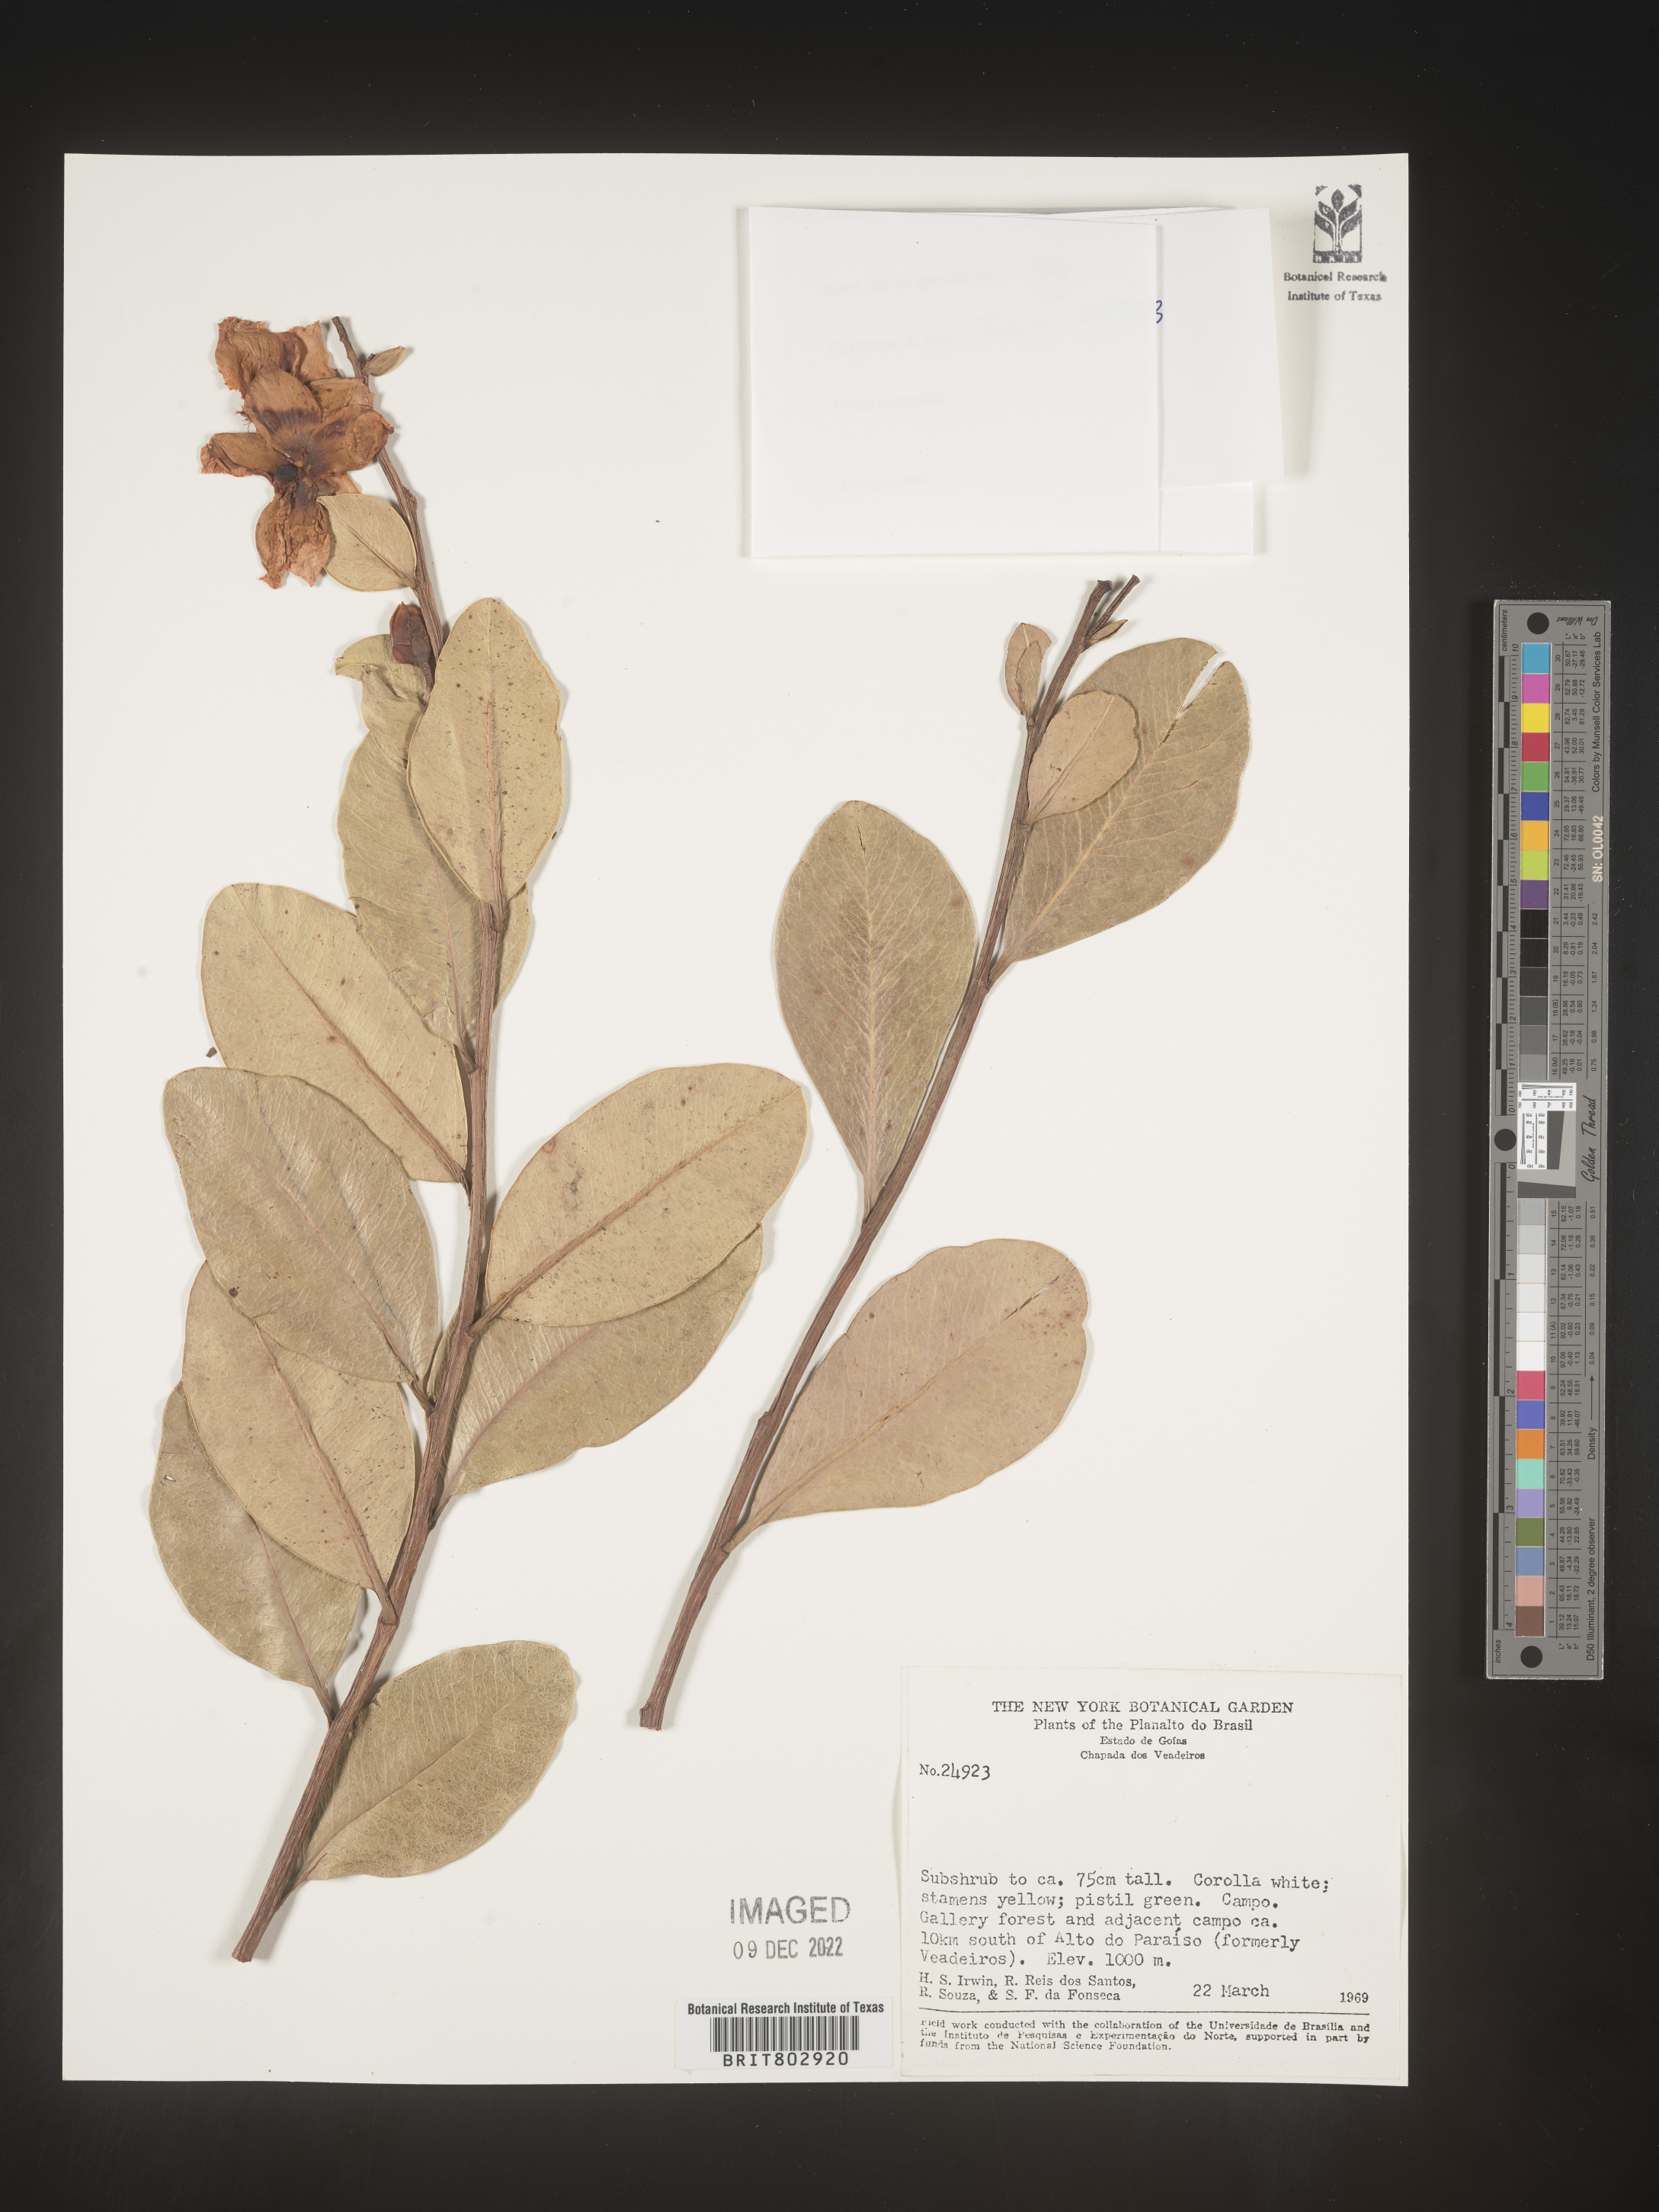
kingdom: Plantae
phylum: Tracheophyta
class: Magnoliopsida
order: Malpighiales
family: Calophyllaceae
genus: Kielmeyera
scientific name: Kielmeyera
